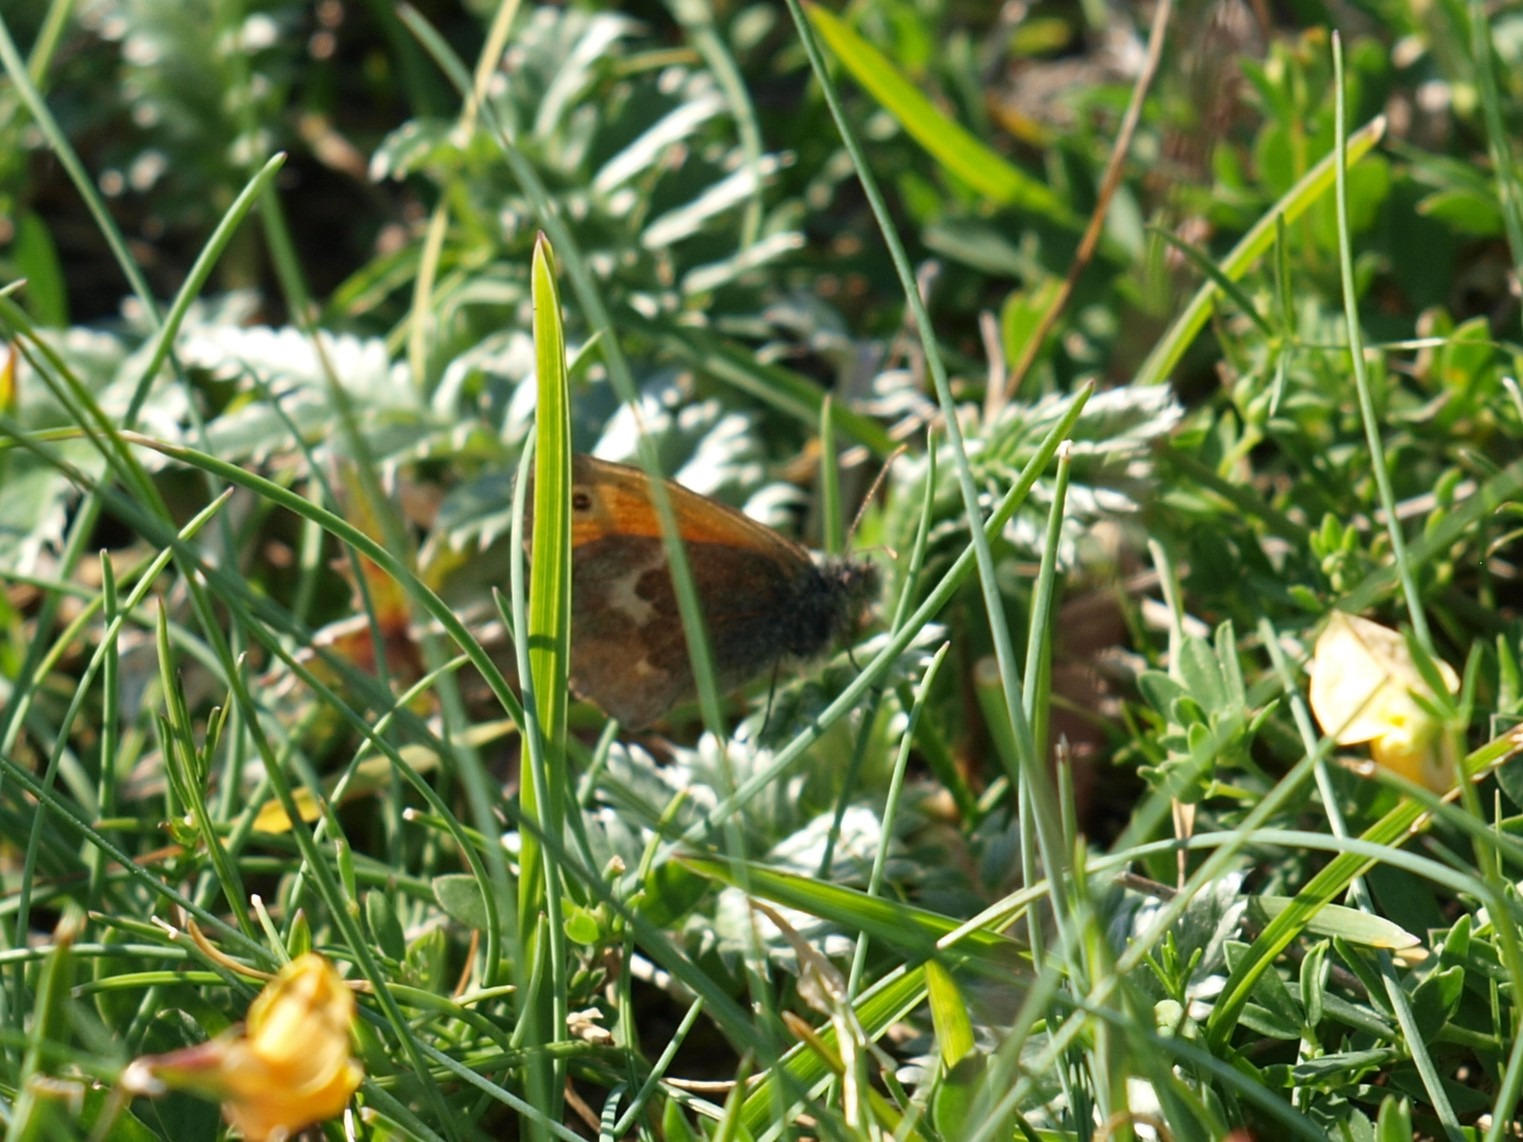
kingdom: Animalia
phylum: Arthropoda
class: Insecta
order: Lepidoptera
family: Nymphalidae
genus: Coenonympha
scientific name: Coenonympha pamphilus
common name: Okkergul randøje
